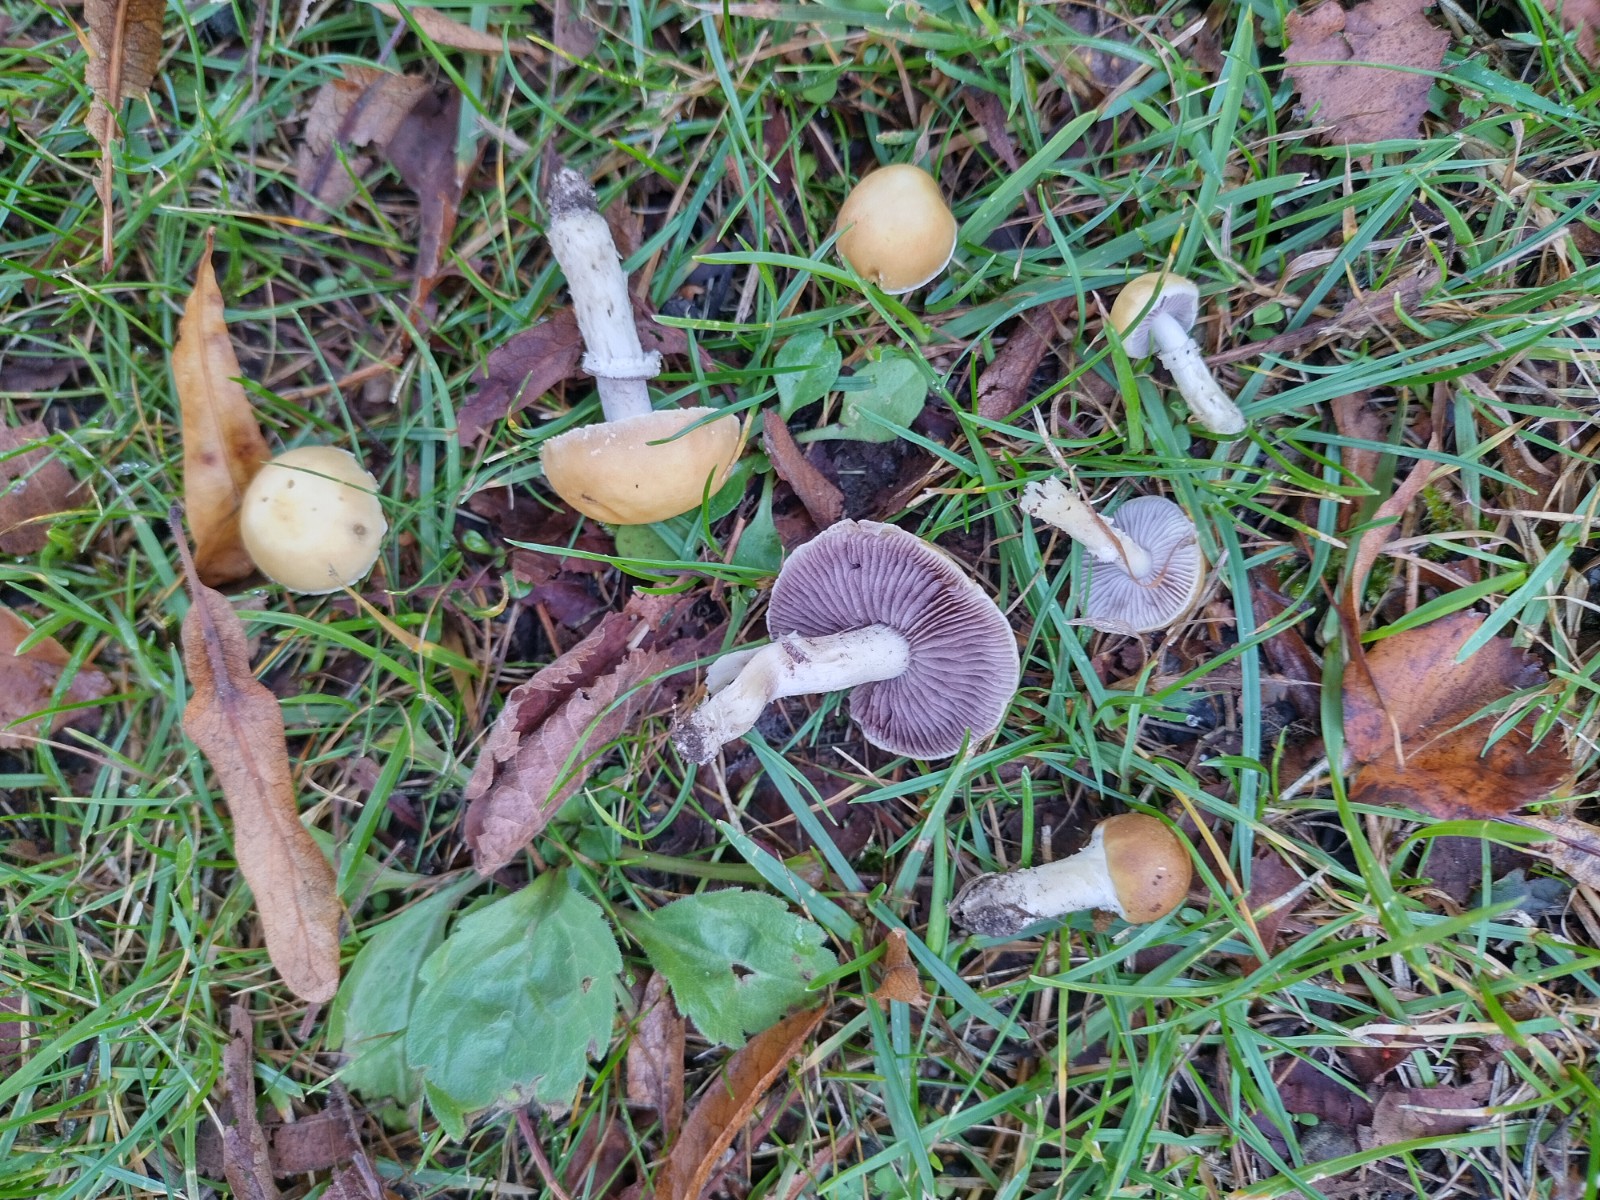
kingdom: Fungi
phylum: Basidiomycota
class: Agaricomycetes
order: Agaricales
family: Hymenogastraceae
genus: Psilocybe
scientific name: Psilocybe coronilla
